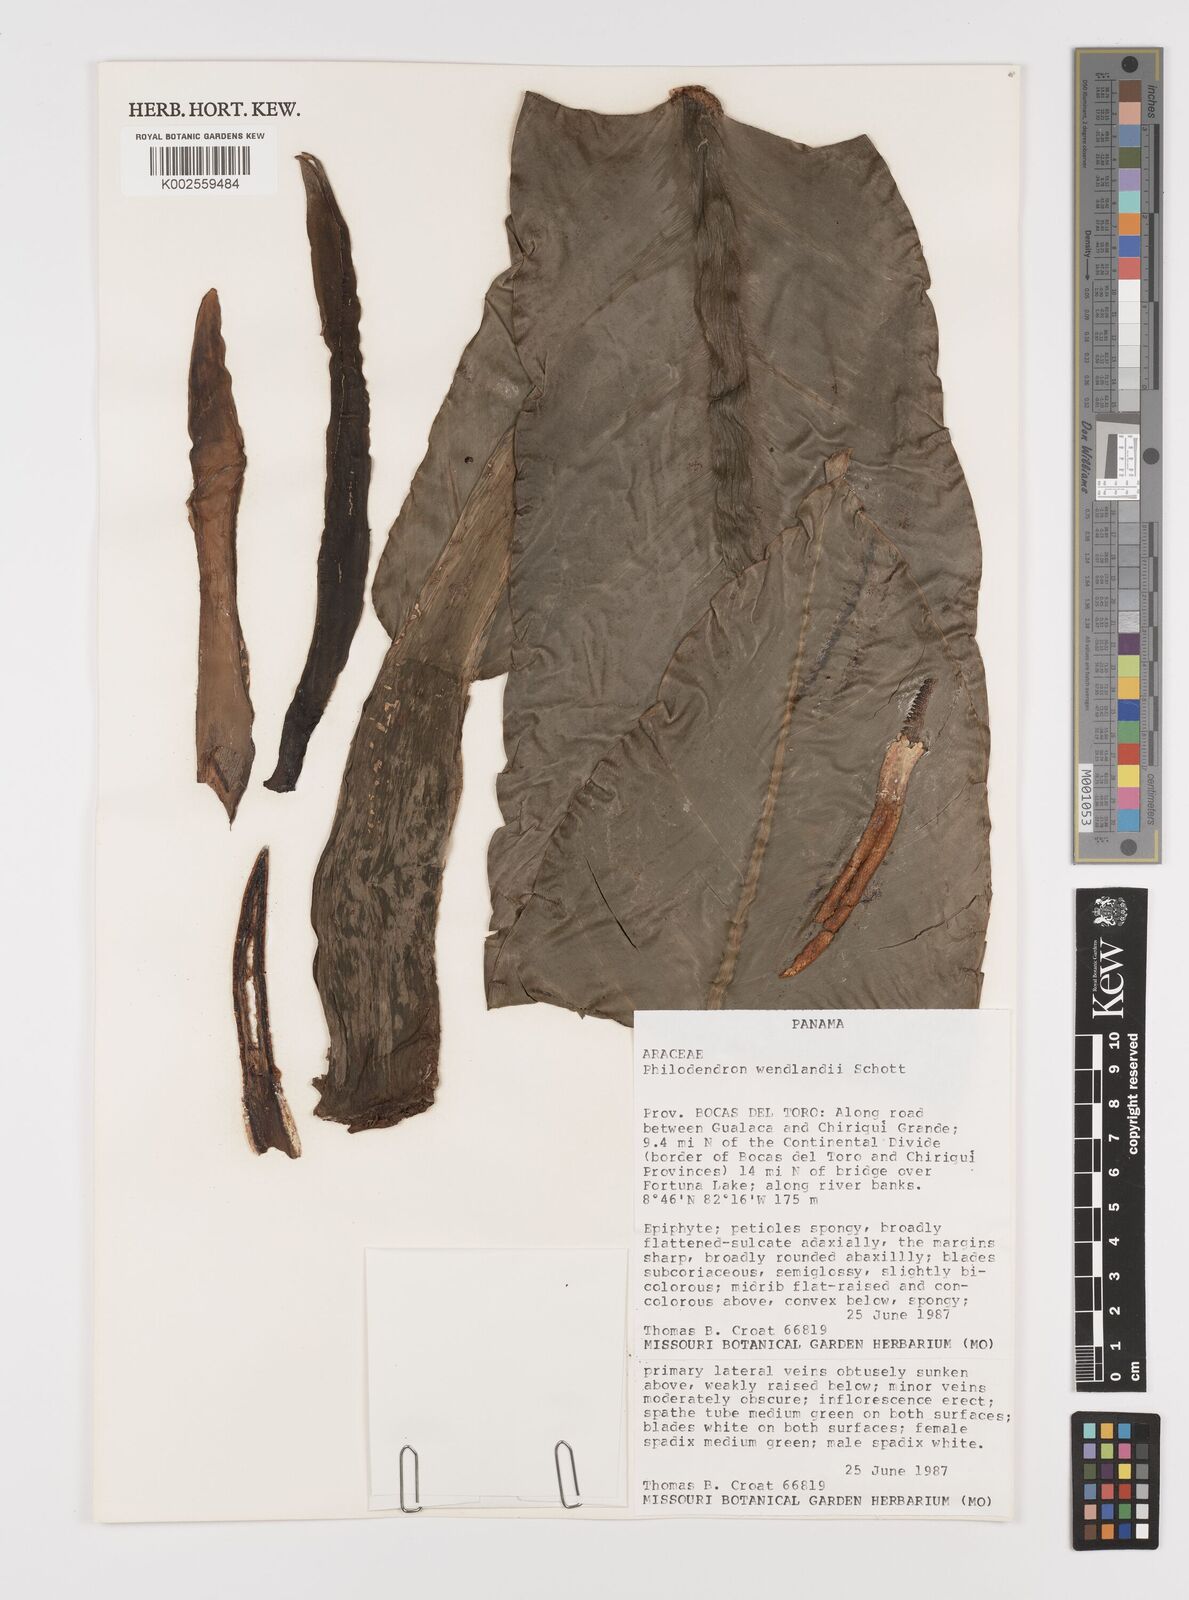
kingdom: Plantae
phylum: Tracheophyta
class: Liliopsida
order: Alismatales
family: Araceae
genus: Philodendron
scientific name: Philodendron wendlandii
